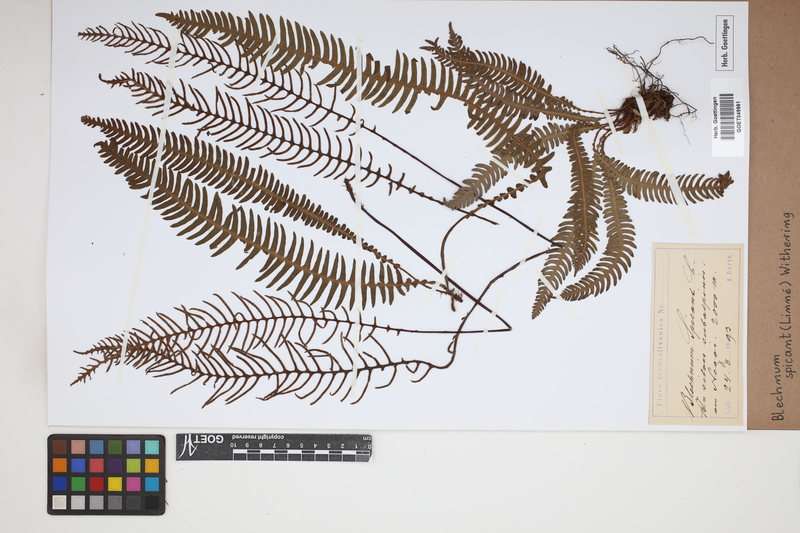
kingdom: Plantae
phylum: Tracheophyta
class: Polypodiopsida
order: Polypodiales
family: Blechnaceae
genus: Struthiopteris
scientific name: Struthiopteris spicant
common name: Deer fern
